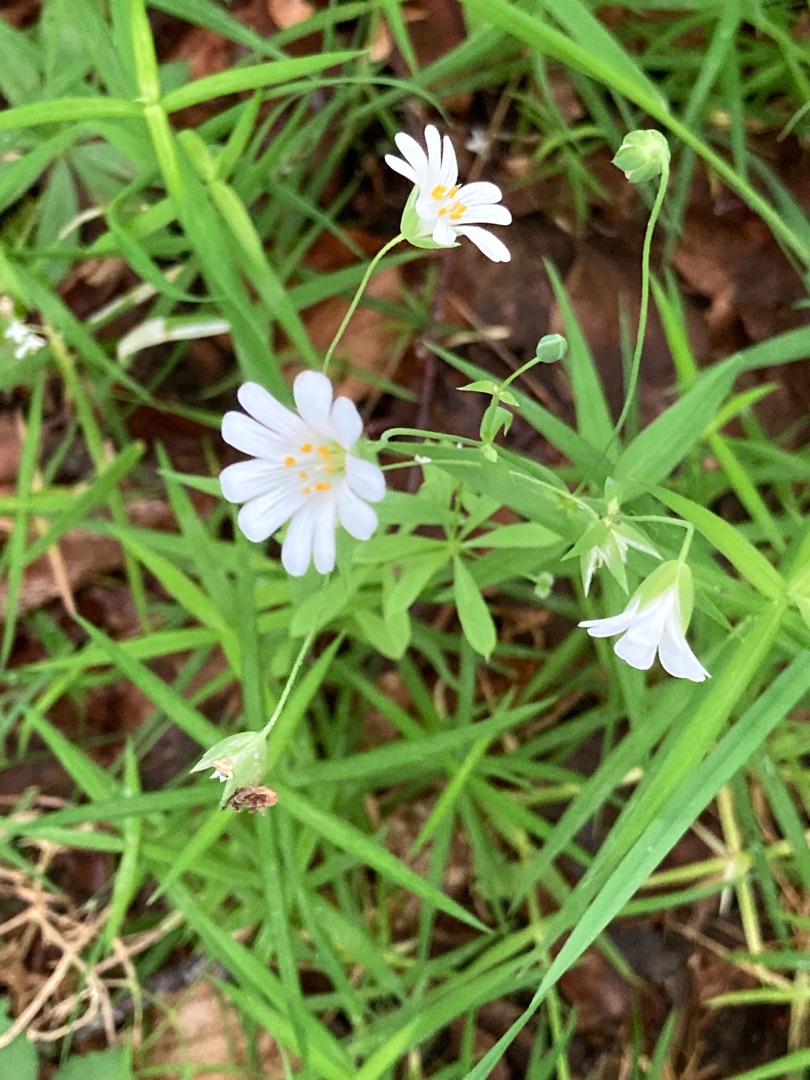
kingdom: Plantae
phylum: Tracheophyta
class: Magnoliopsida
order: Caryophyllales
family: Caryophyllaceae
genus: Rabelera
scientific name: Rabelera holostea
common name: Stor fladstjerne
